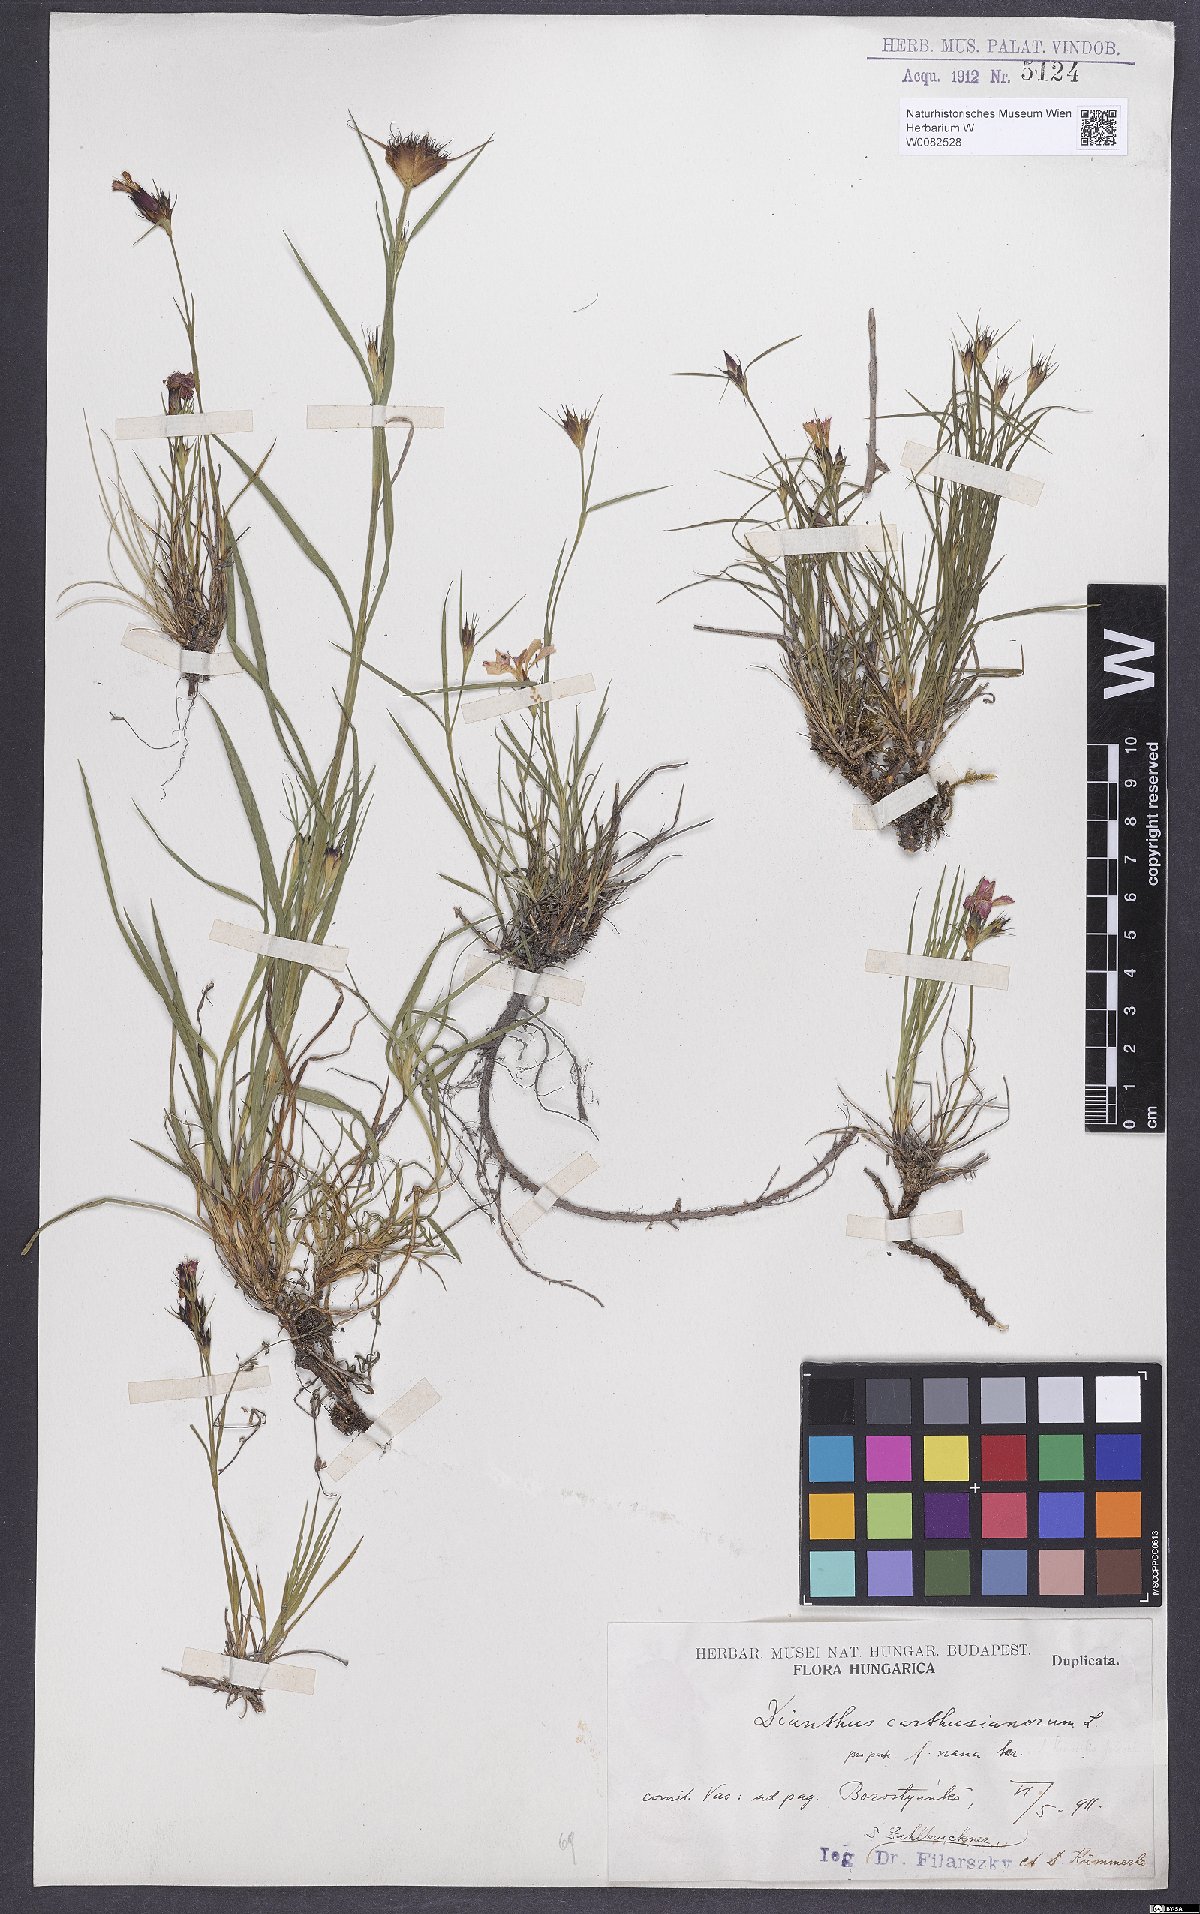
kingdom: Plantae
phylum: Tracheophyta
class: Magnoliopsida
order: Caryophyllales
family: Caryophyllaceae
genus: Dianthus
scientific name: Dianthus carthusianorum
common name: Carthusian pink
